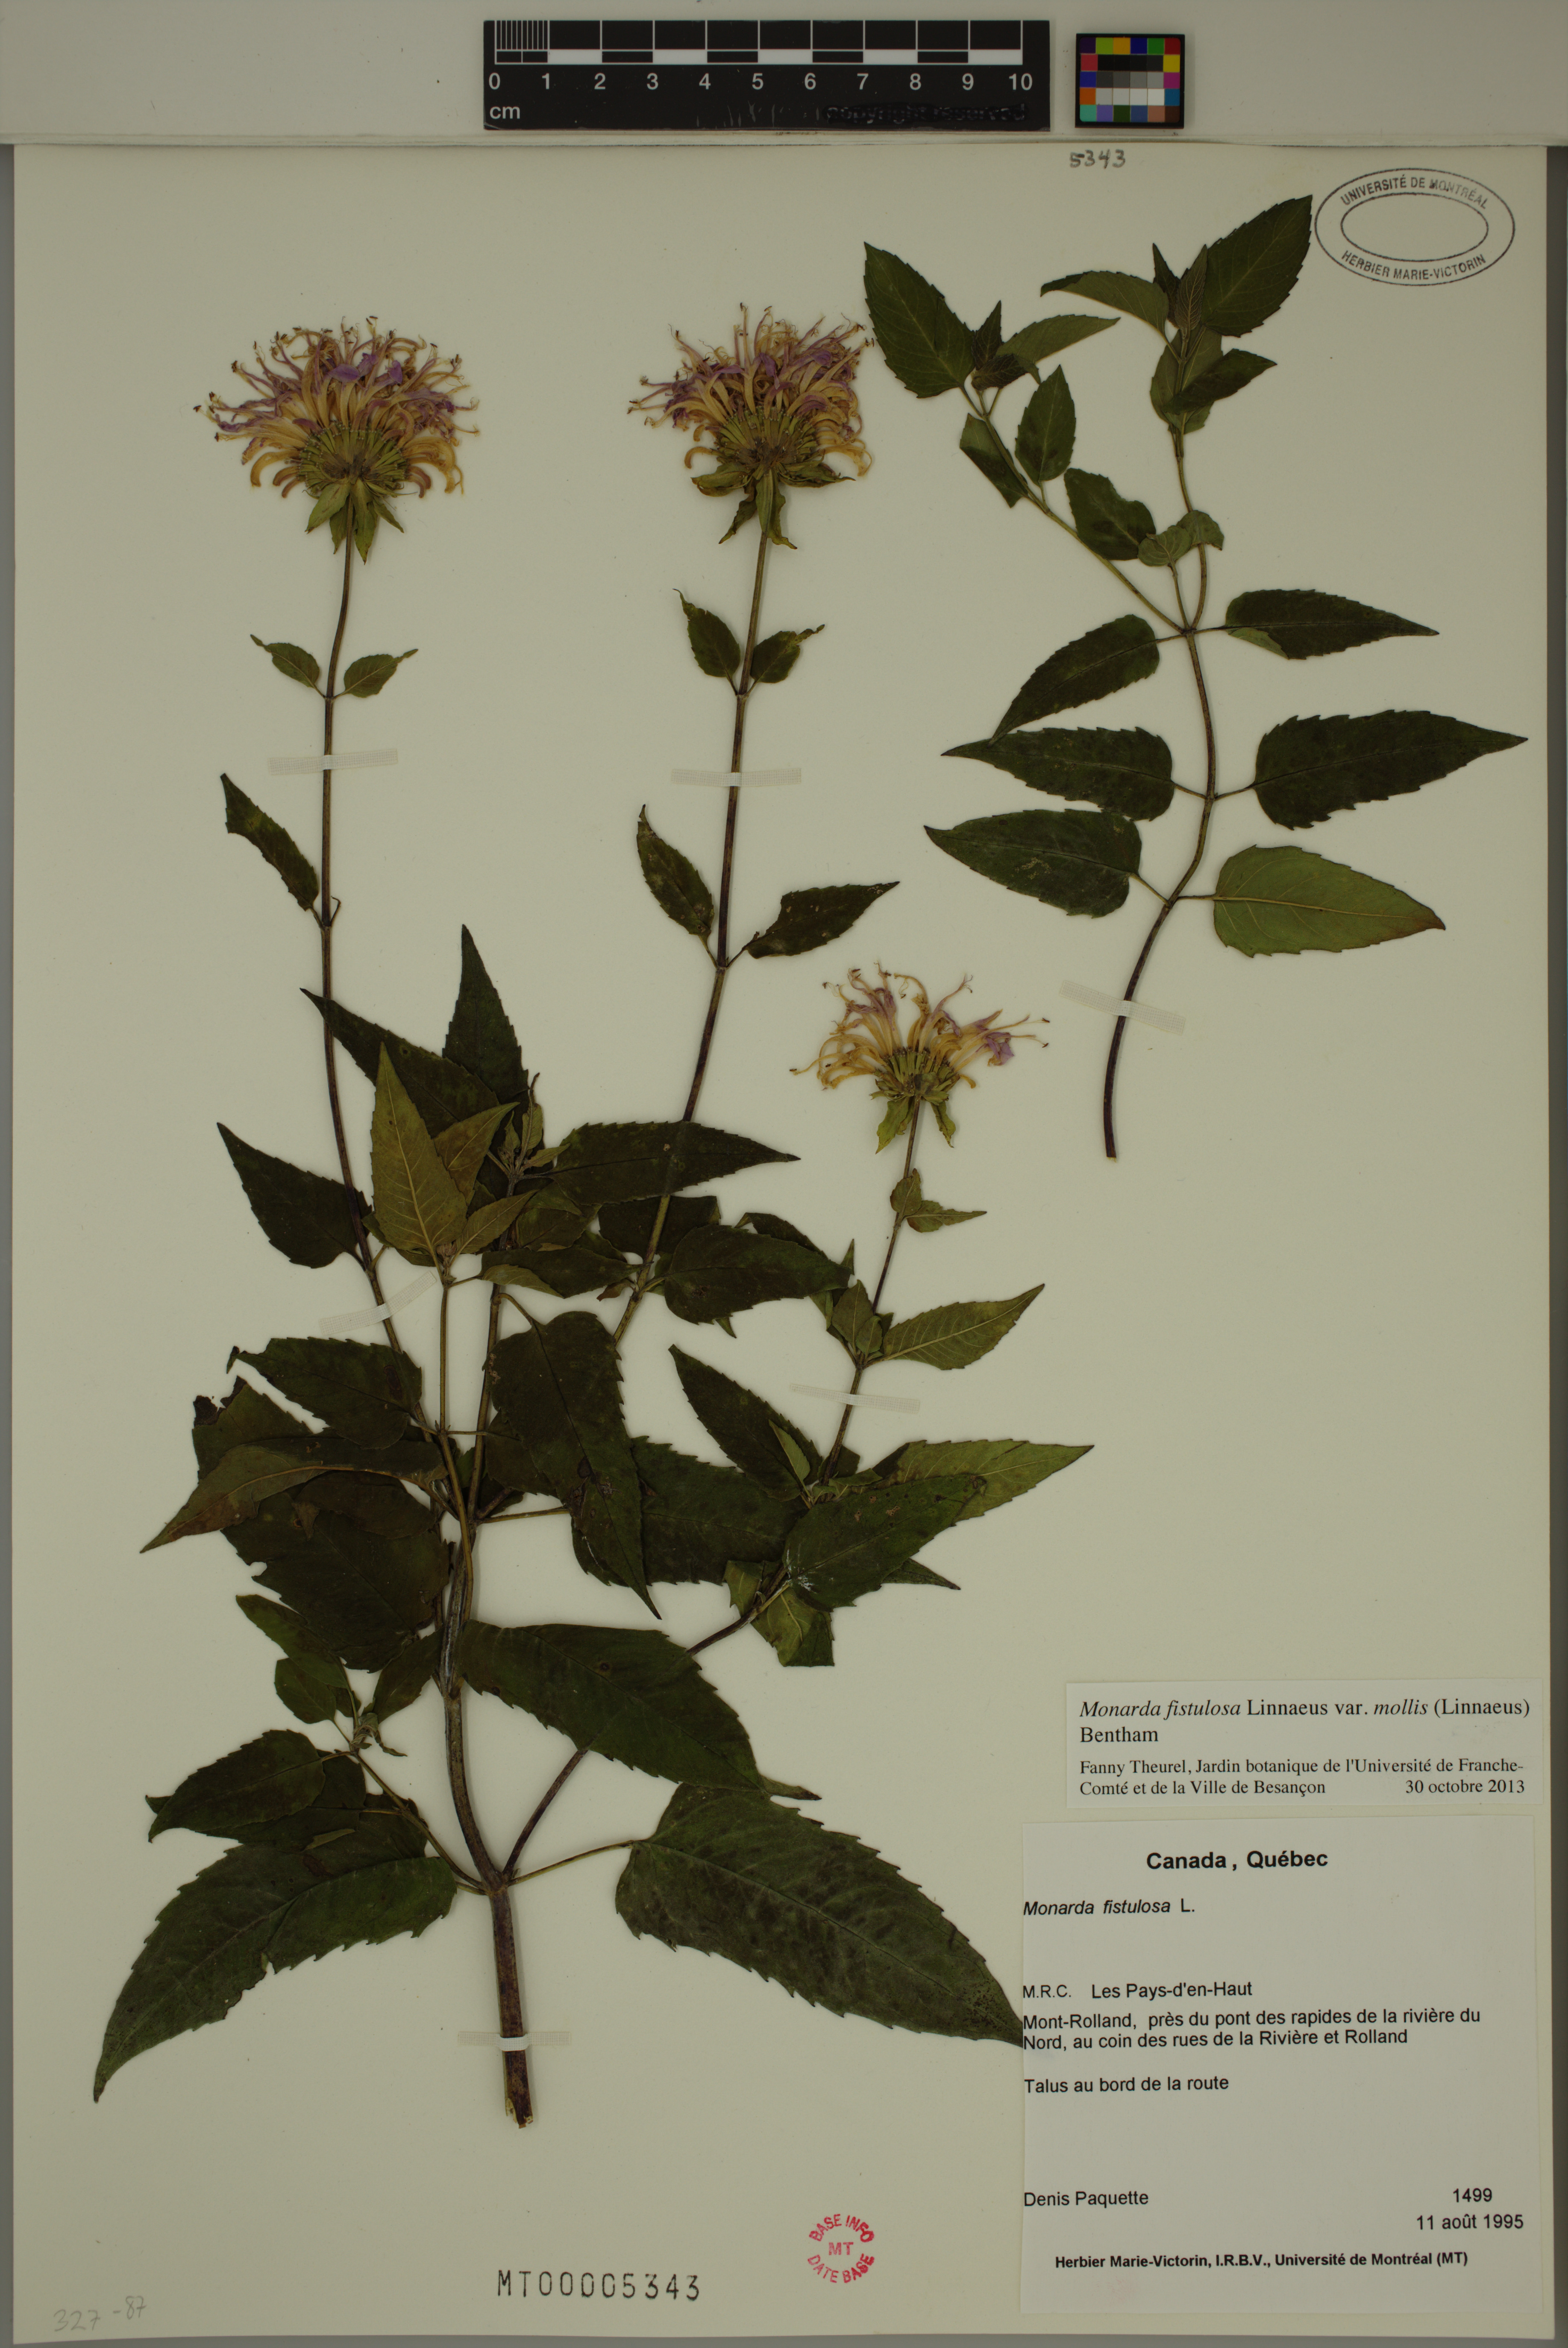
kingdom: Plantae
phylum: Tracheophyta
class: Magnoliopsida
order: Lamiales
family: Lamiaceae
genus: Monarda
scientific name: Monarda fistulosa
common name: Purple beebalm
